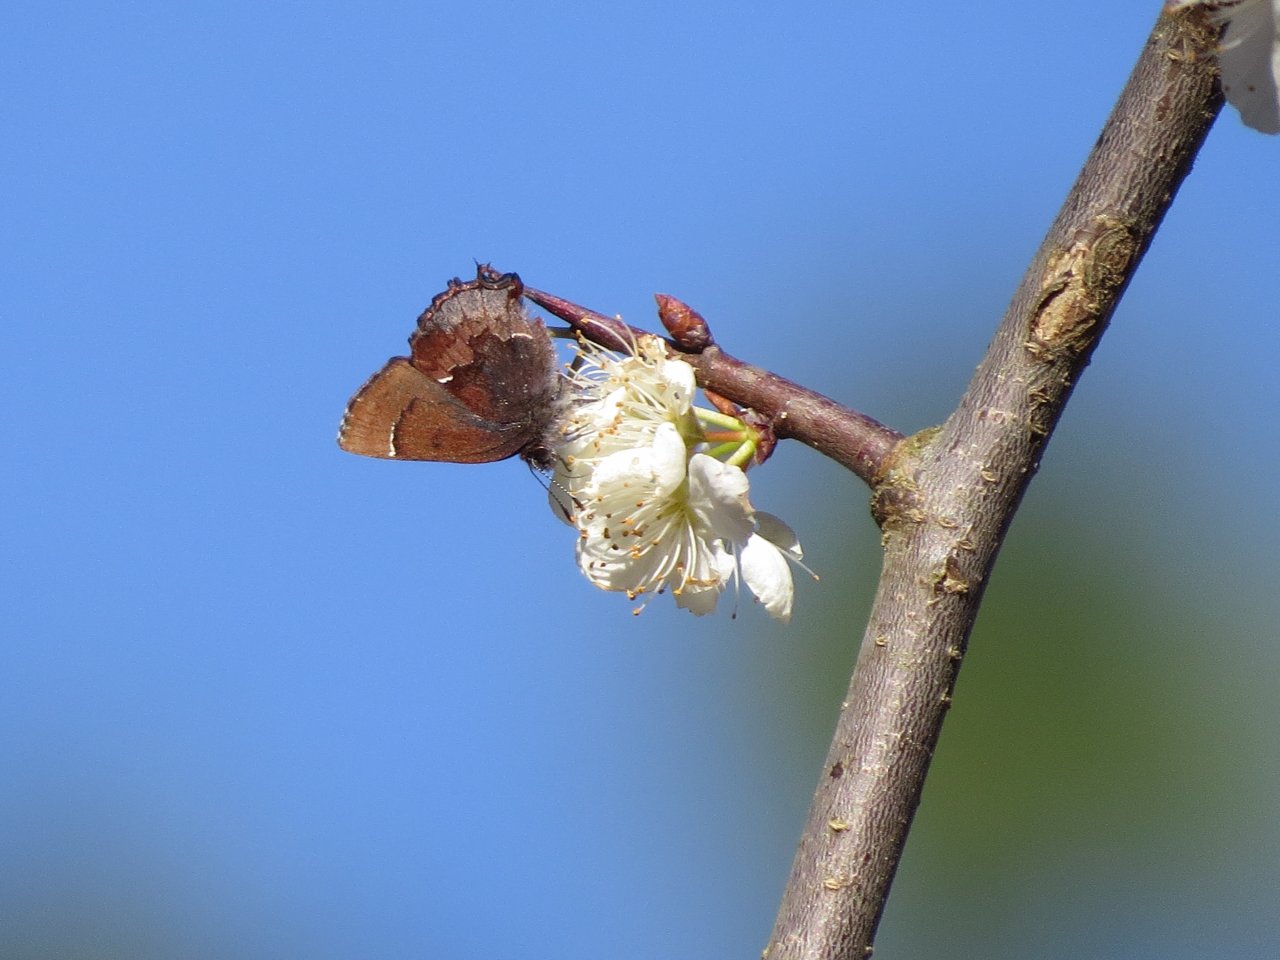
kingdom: Animalia
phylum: Arthropoda
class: Insecta
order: Lepidoptera
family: Lycaenidae
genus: Incisalia
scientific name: Incisalia henrici
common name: Henry's Elfin
